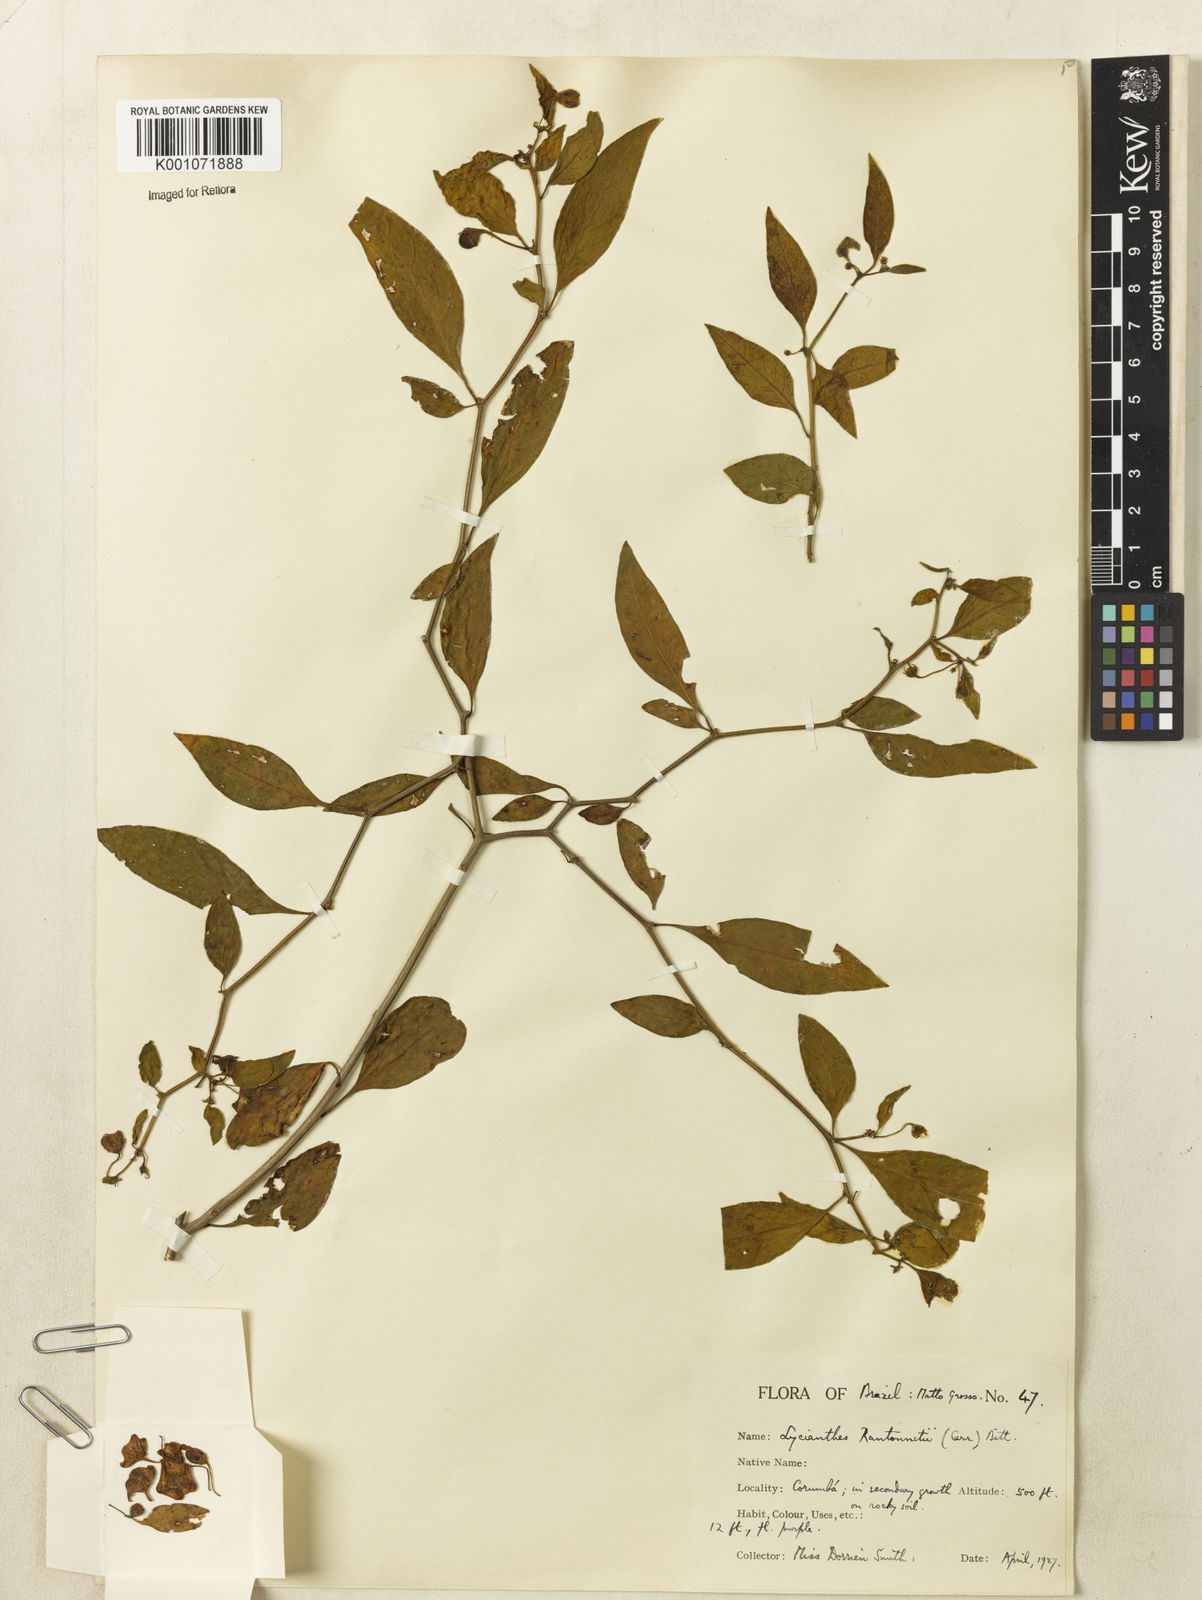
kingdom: Plantae
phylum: Tracheophyta
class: Magnoliopsida
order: Solanales
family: Solanaceae
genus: Lycianthes
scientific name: Lycianthes
